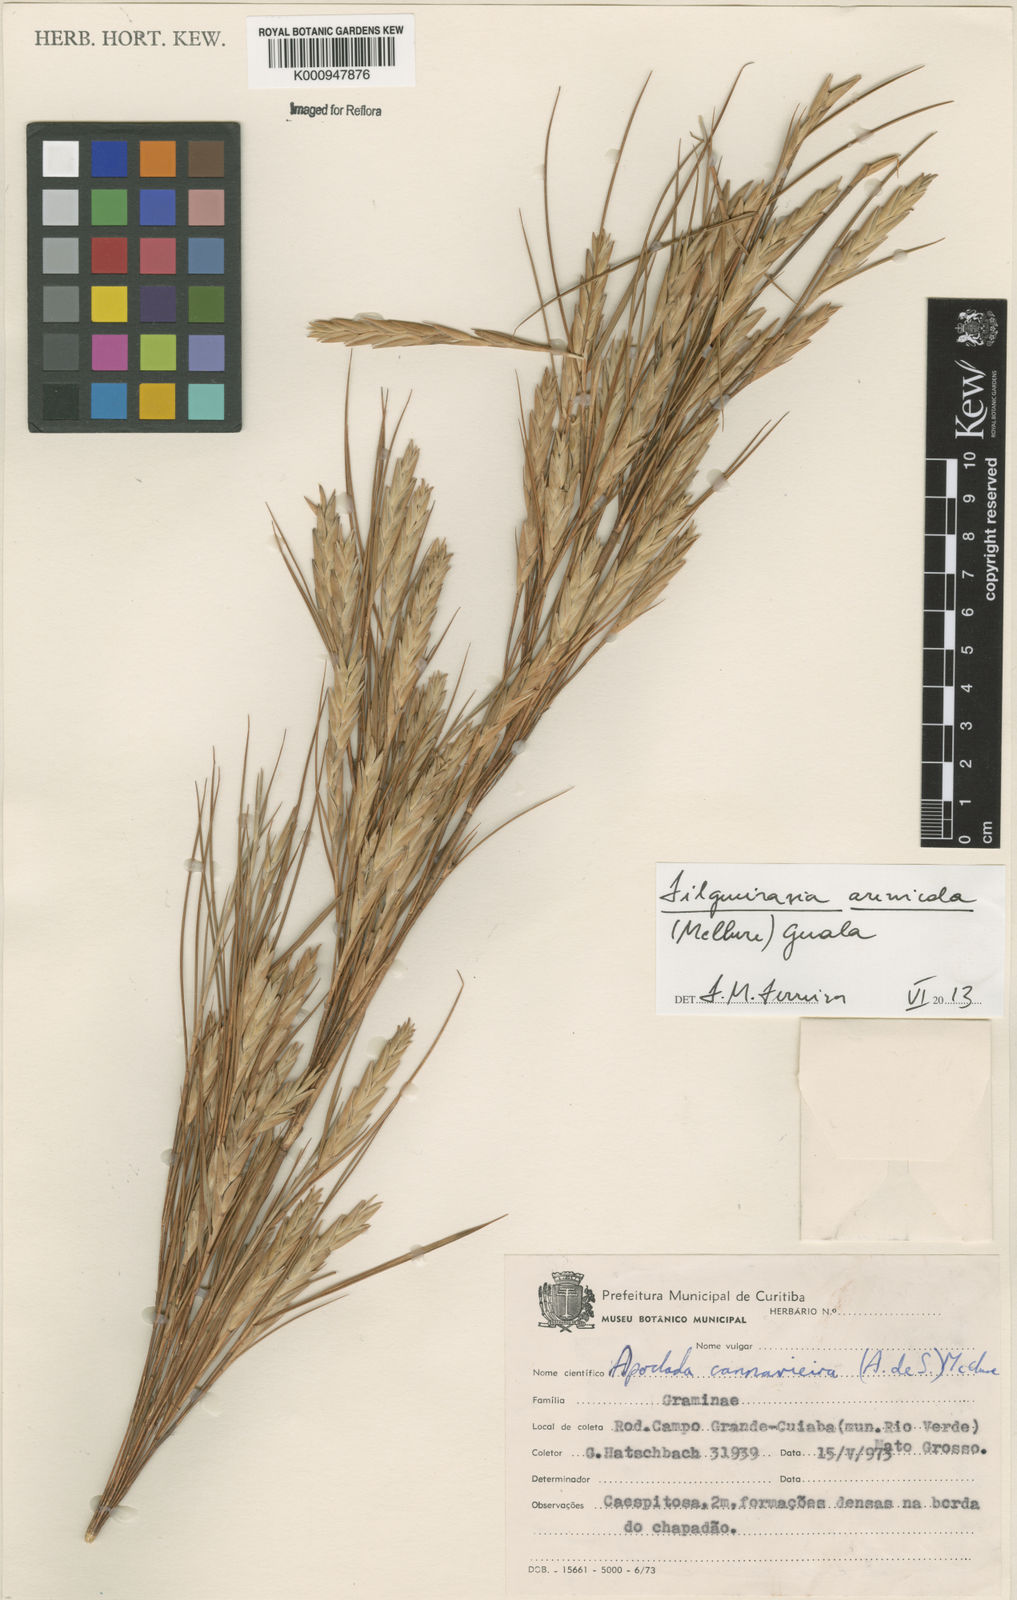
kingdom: Plantae
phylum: Tracheophyta
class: Liliopsida
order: Poales
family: Poaceae
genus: Filgueirasia
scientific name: Filgueirasia arenicola
